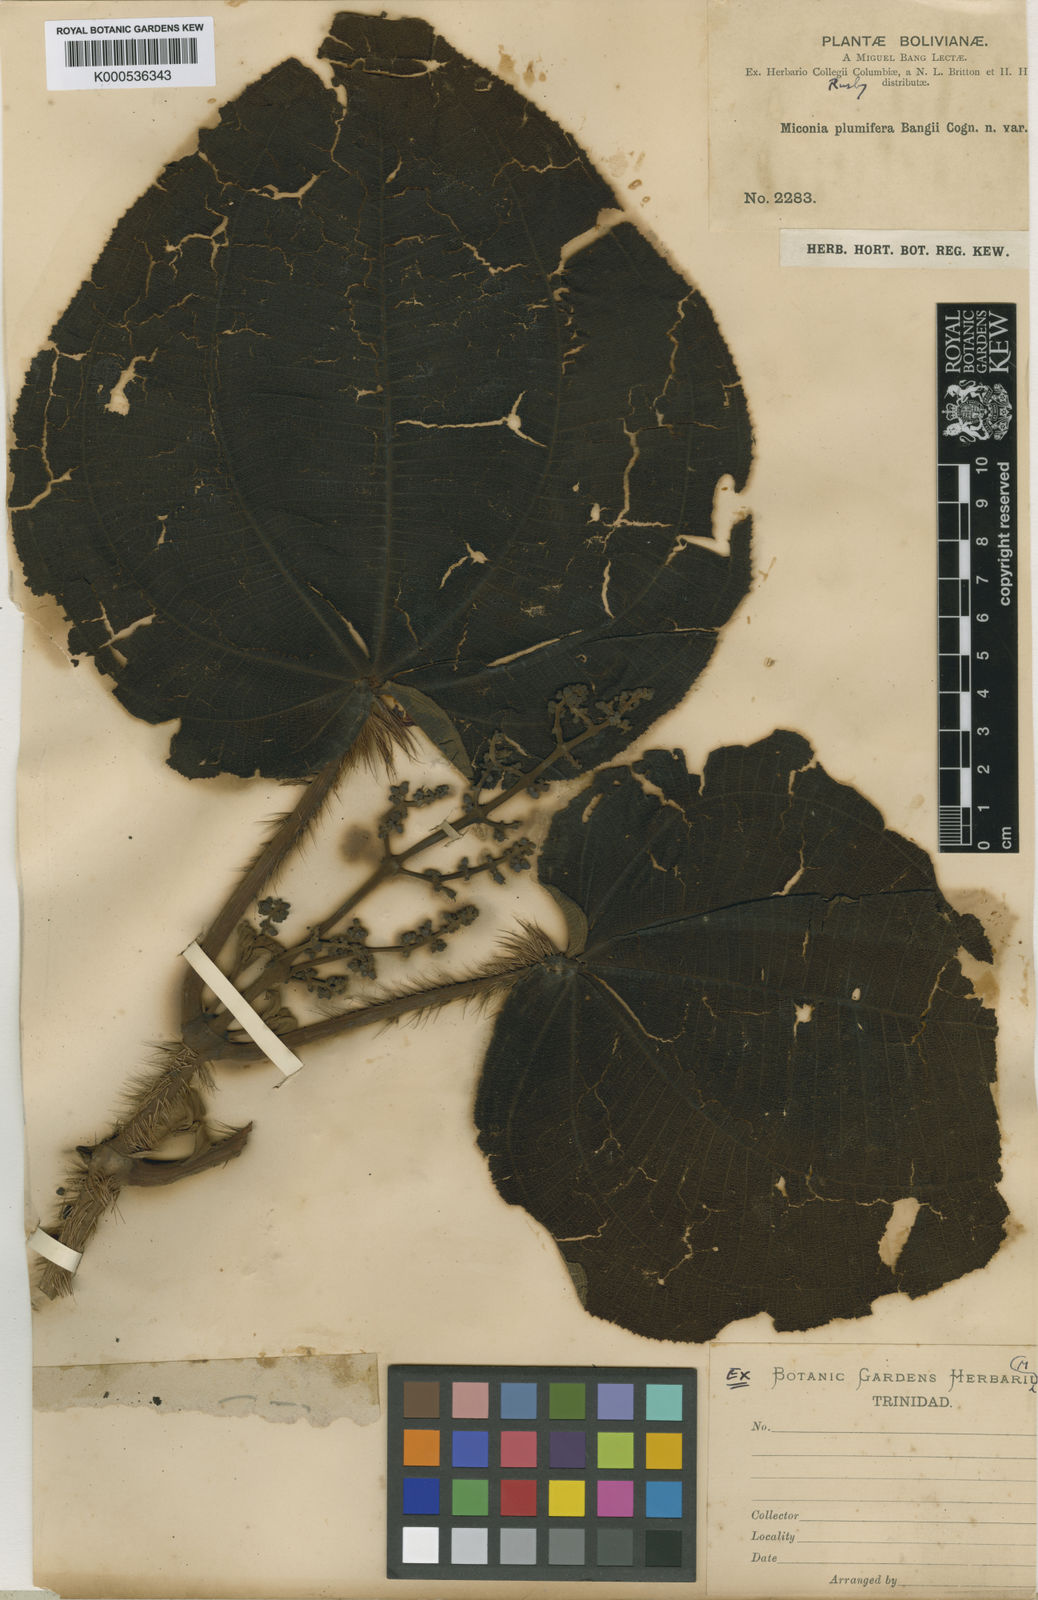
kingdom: Plantae
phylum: Tracheophyta
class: Magnoliopsida
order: Myrtales
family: Melastomataceae
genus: Miconia
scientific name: Miconia plumifera
